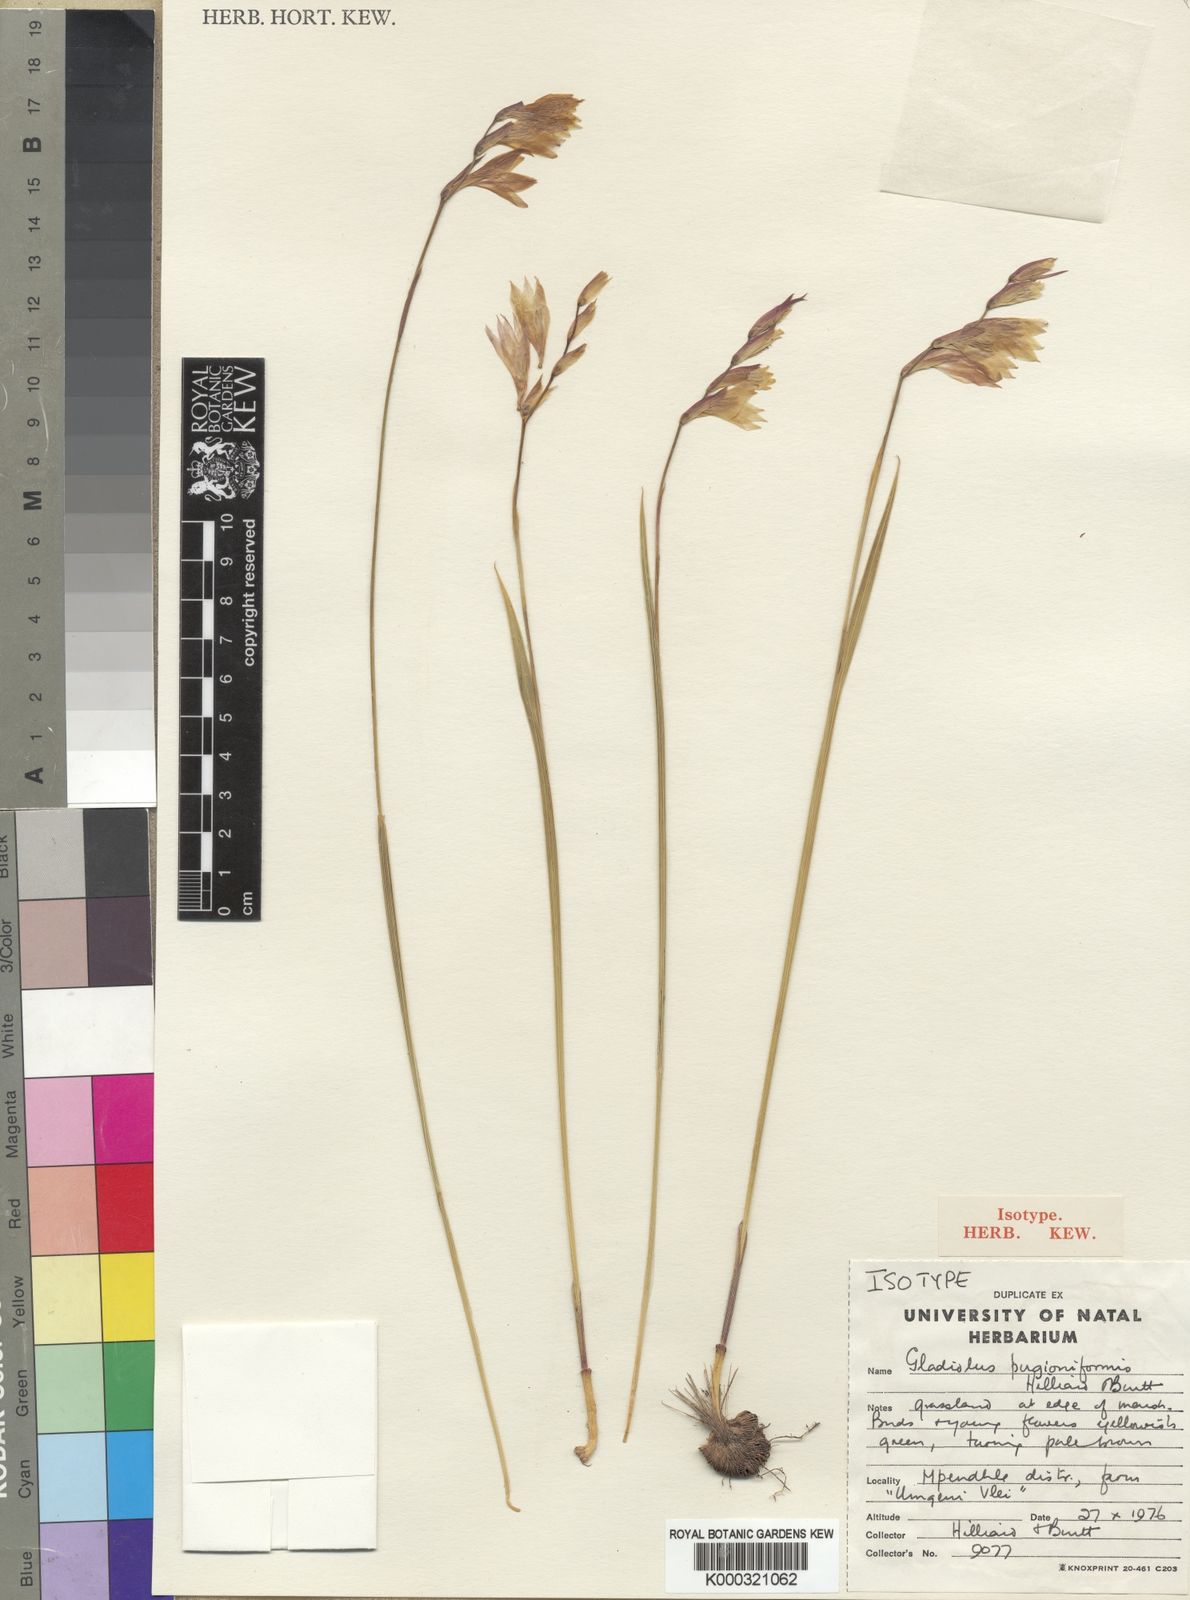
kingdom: Plantae
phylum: Tracheophyta
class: Liliopsida
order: Asparagales
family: Iridaceae
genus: Gladiolus
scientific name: Gladiolus pubigerus
